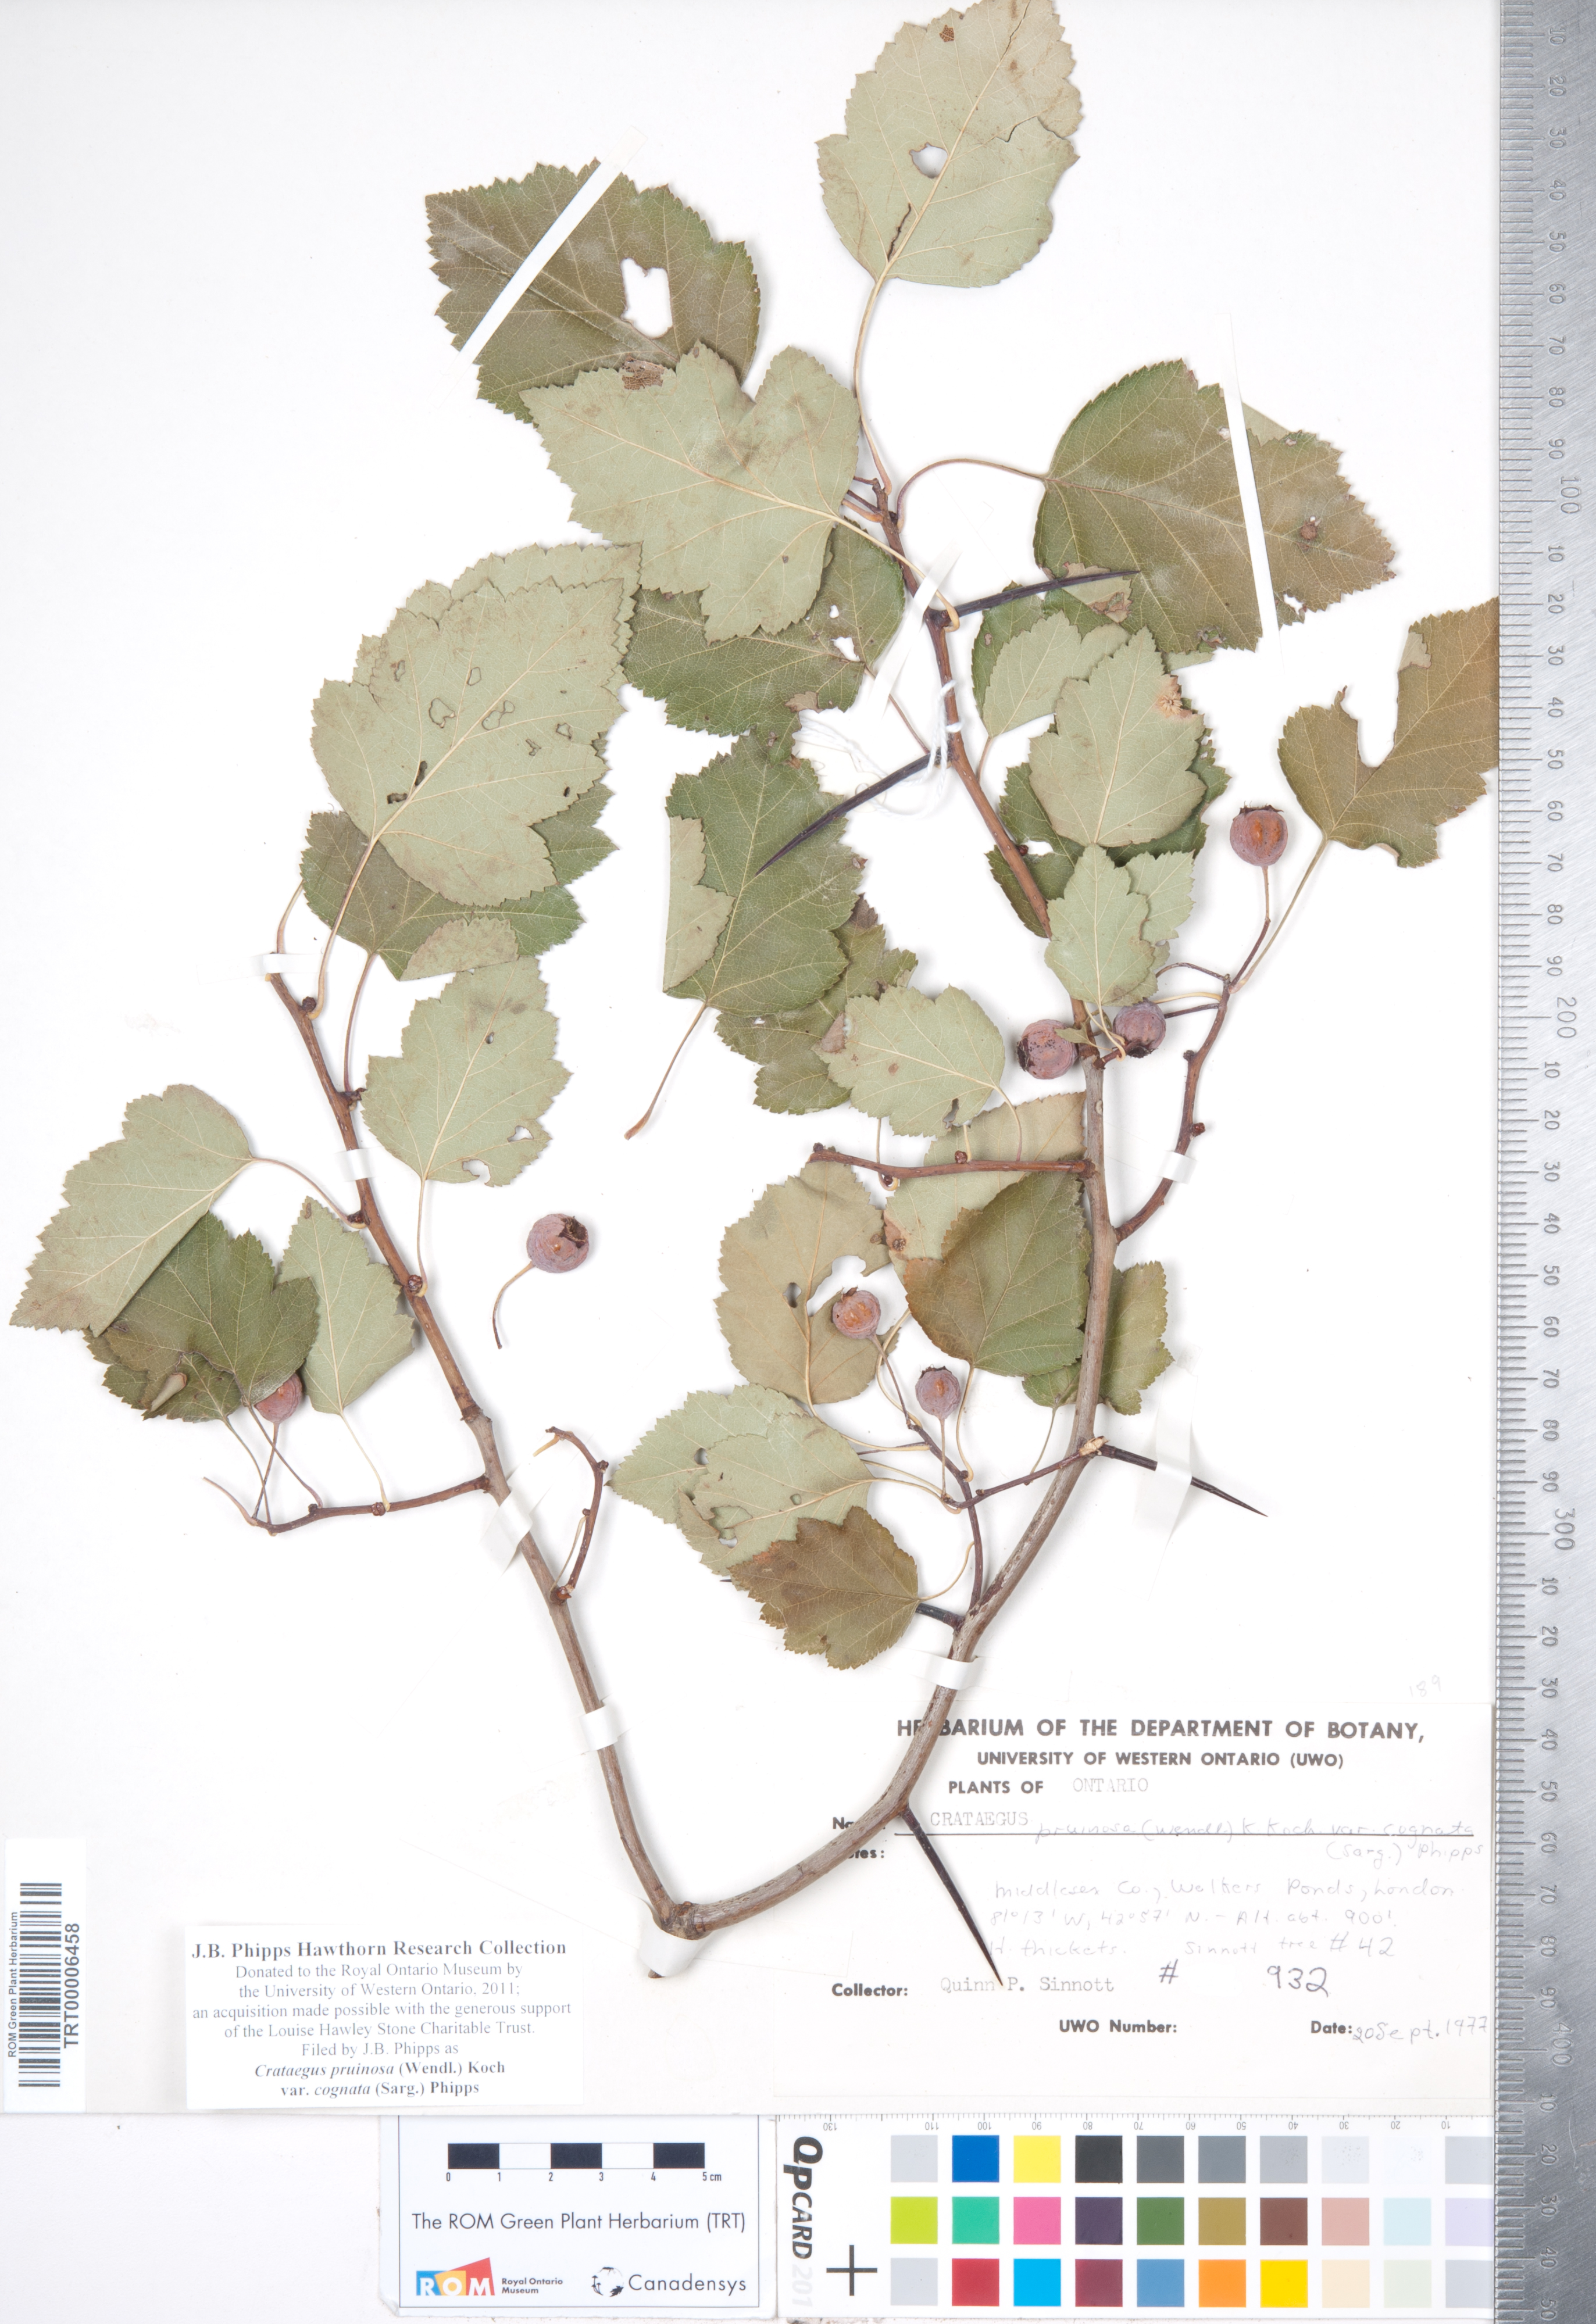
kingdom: Plantae
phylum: Tracheophyta
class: Magnoliopsida
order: Rosales
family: Rosaceae
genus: Crataegus
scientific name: Crataegus
